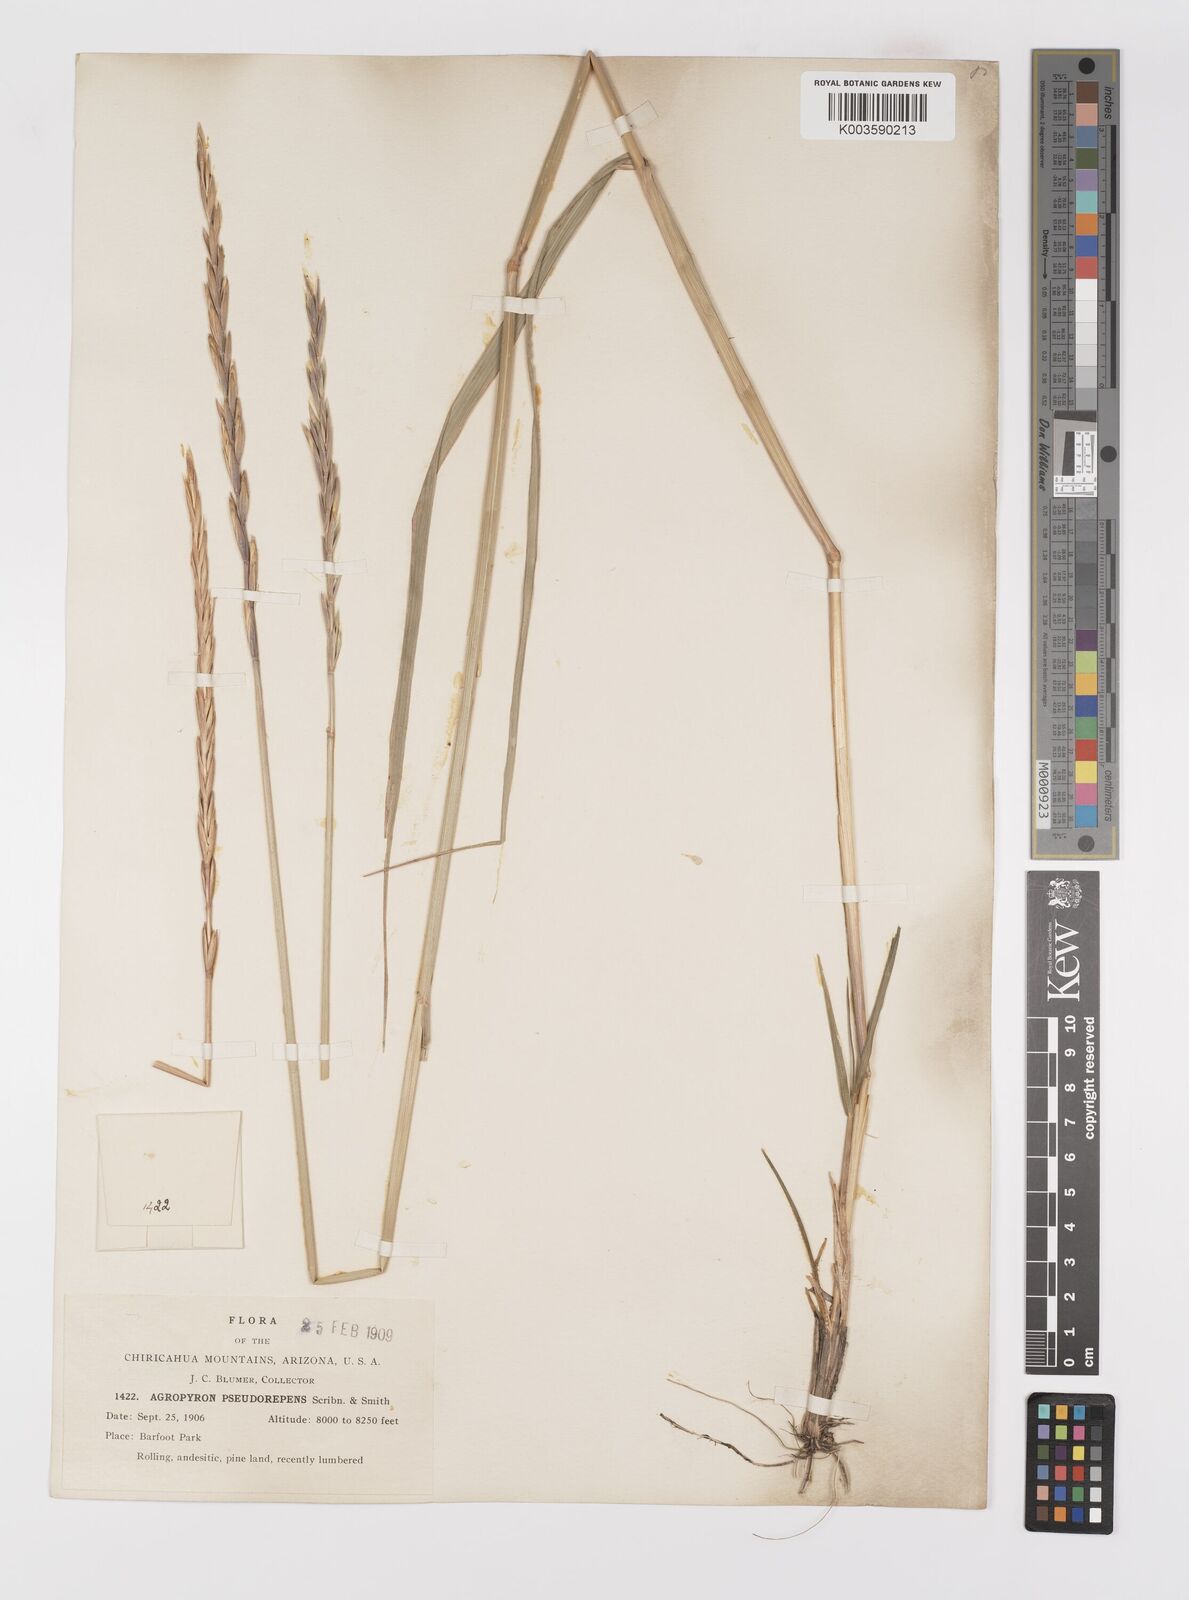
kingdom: Plantae
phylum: Tracheophyta
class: Liliopsida
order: Poales
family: Poaceae
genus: Elymus
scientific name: Elymus violaceus
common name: Arctic wheatgrass
